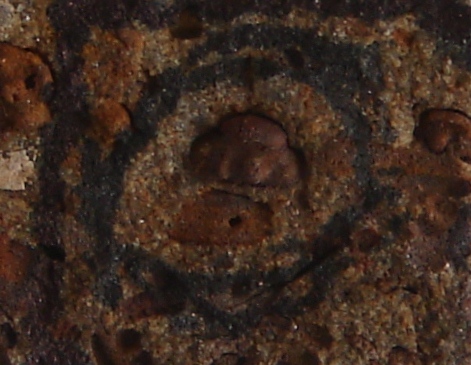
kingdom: Animalia
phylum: Arthropoda
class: Ostracoda
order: Palaeocopida
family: Kloedeniidae
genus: Carinokloedenia
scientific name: Carinokloedenia
